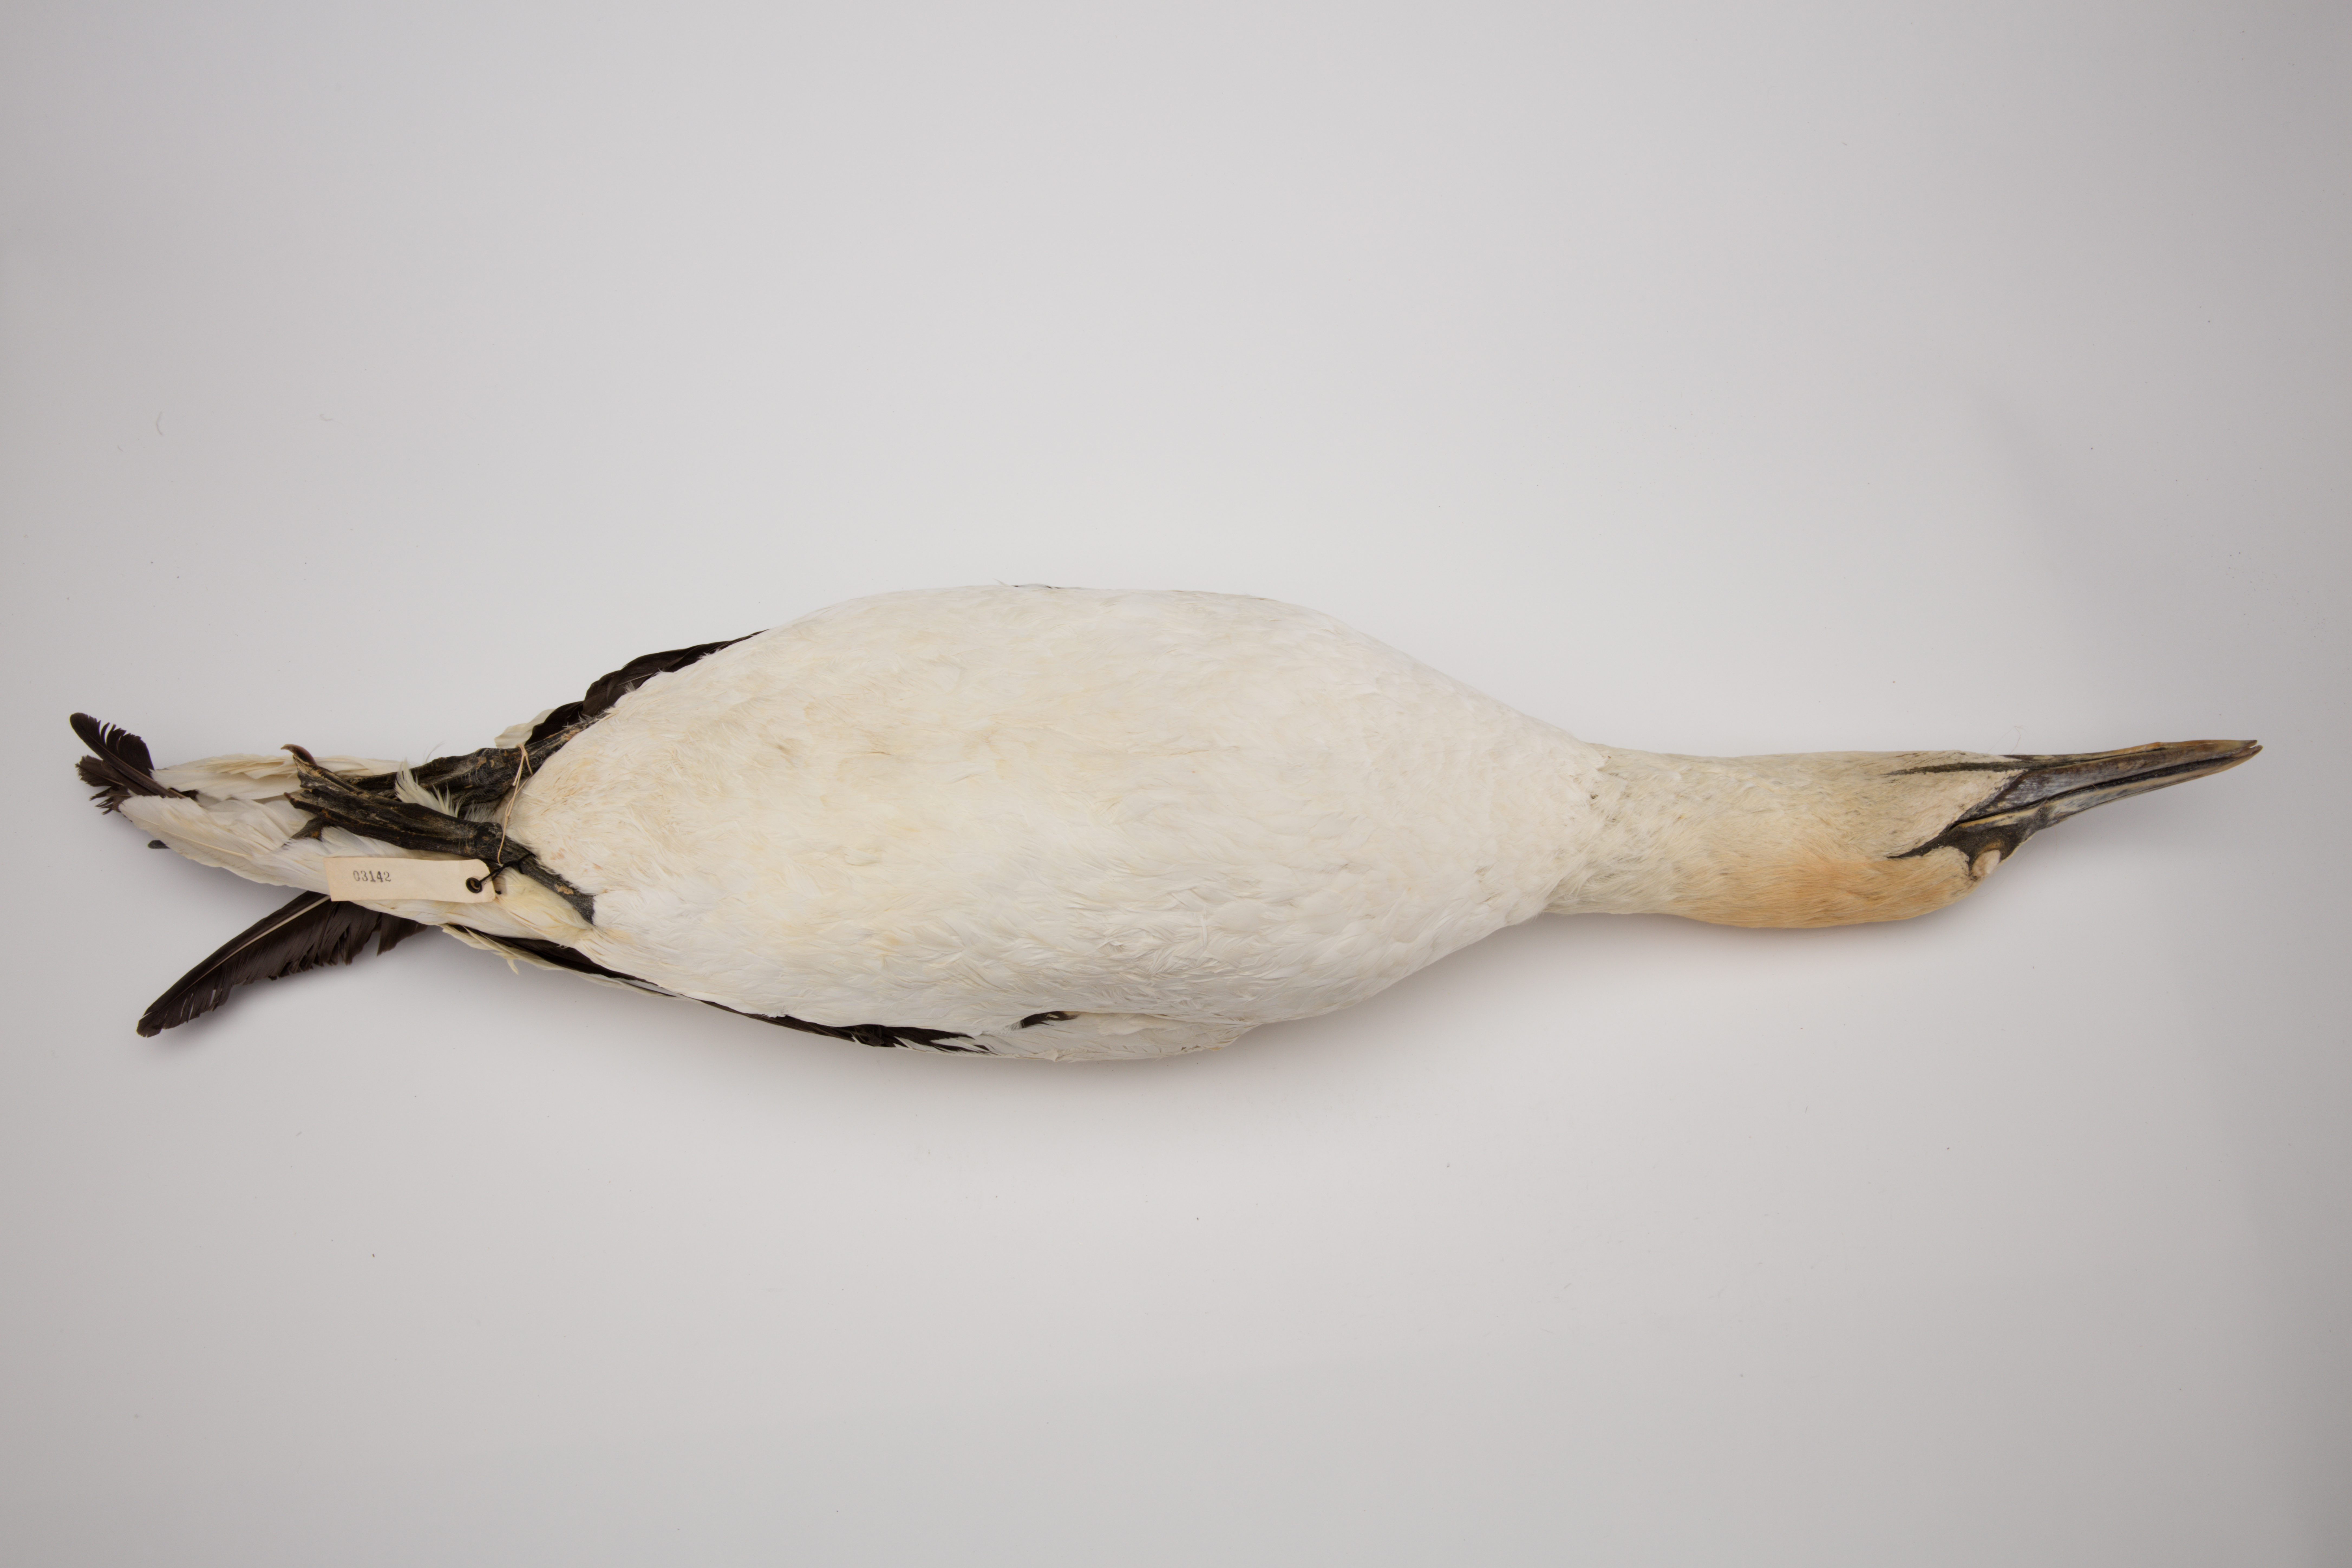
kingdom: Animalia
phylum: Chordata
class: Aves
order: Suliformes
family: Sulidae
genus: Morus
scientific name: Morus serrator
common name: Australasian gannet
